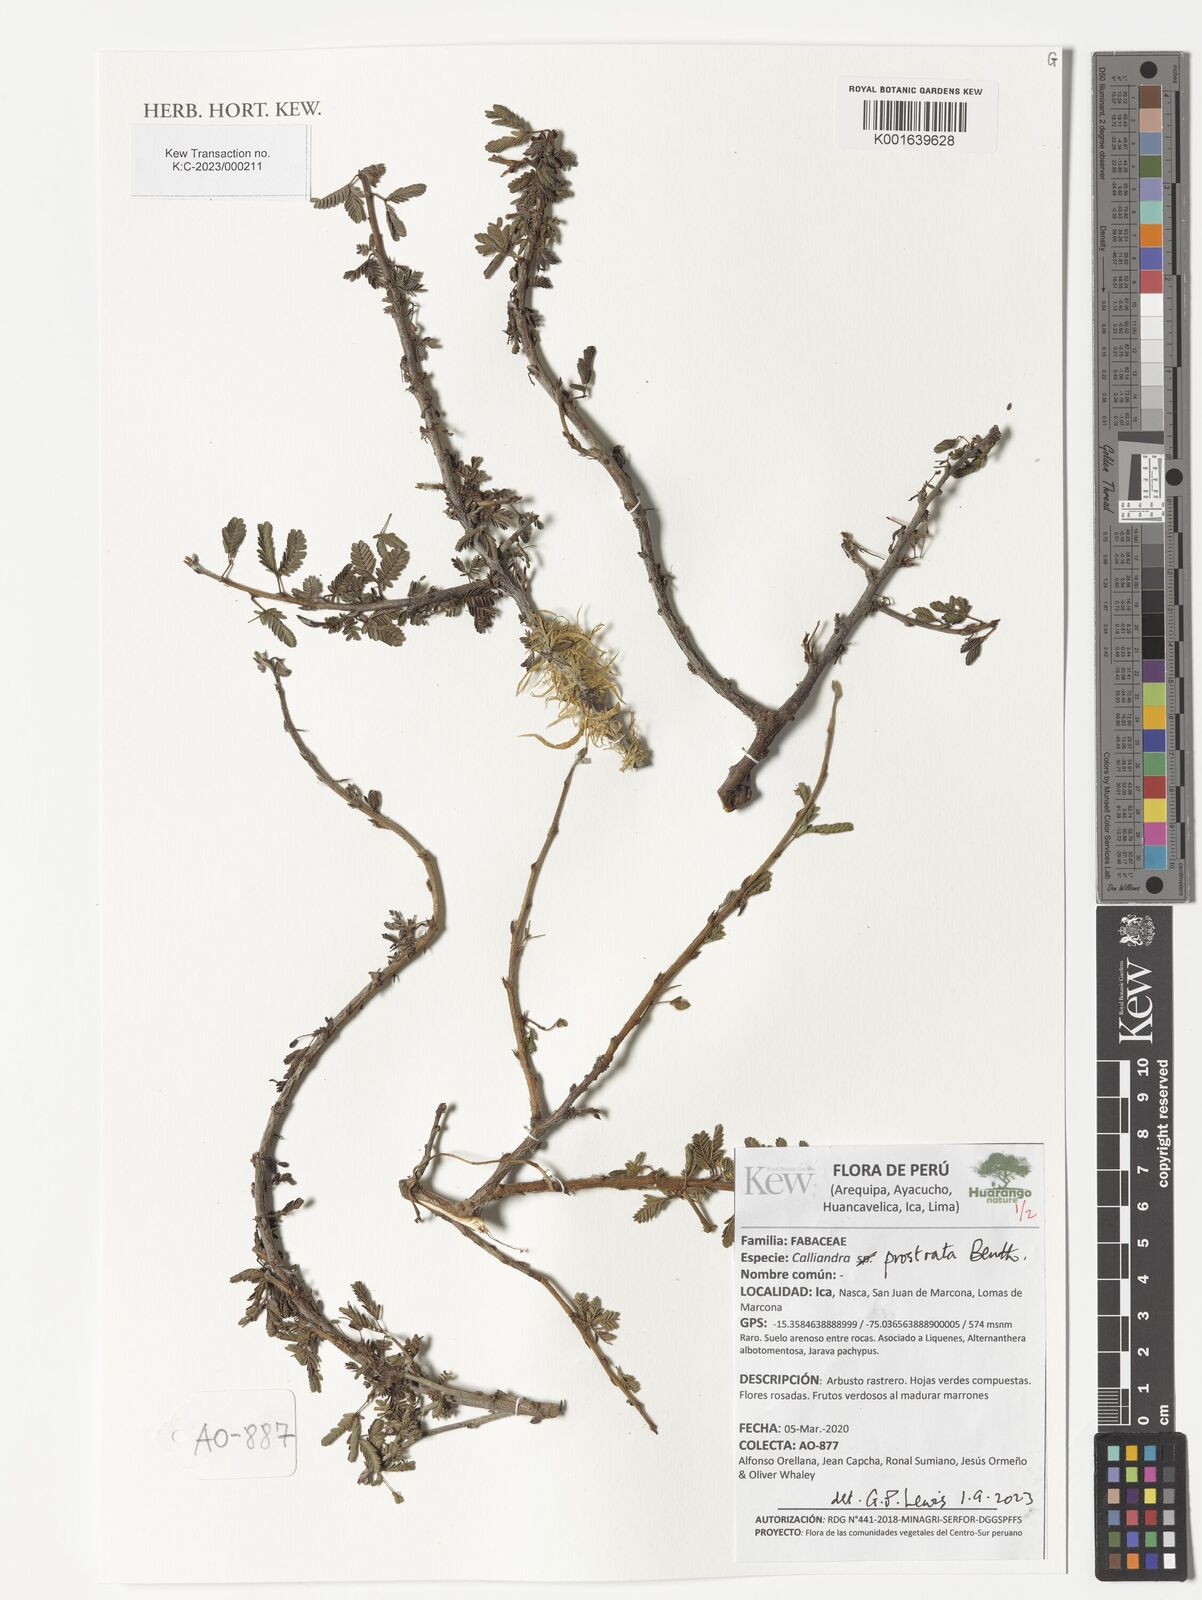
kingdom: Plantae
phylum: Tracheophyta
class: Magnoliopsida
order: Fabales
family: Fabaceae
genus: Calliandra
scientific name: Calliandra taxifolia
